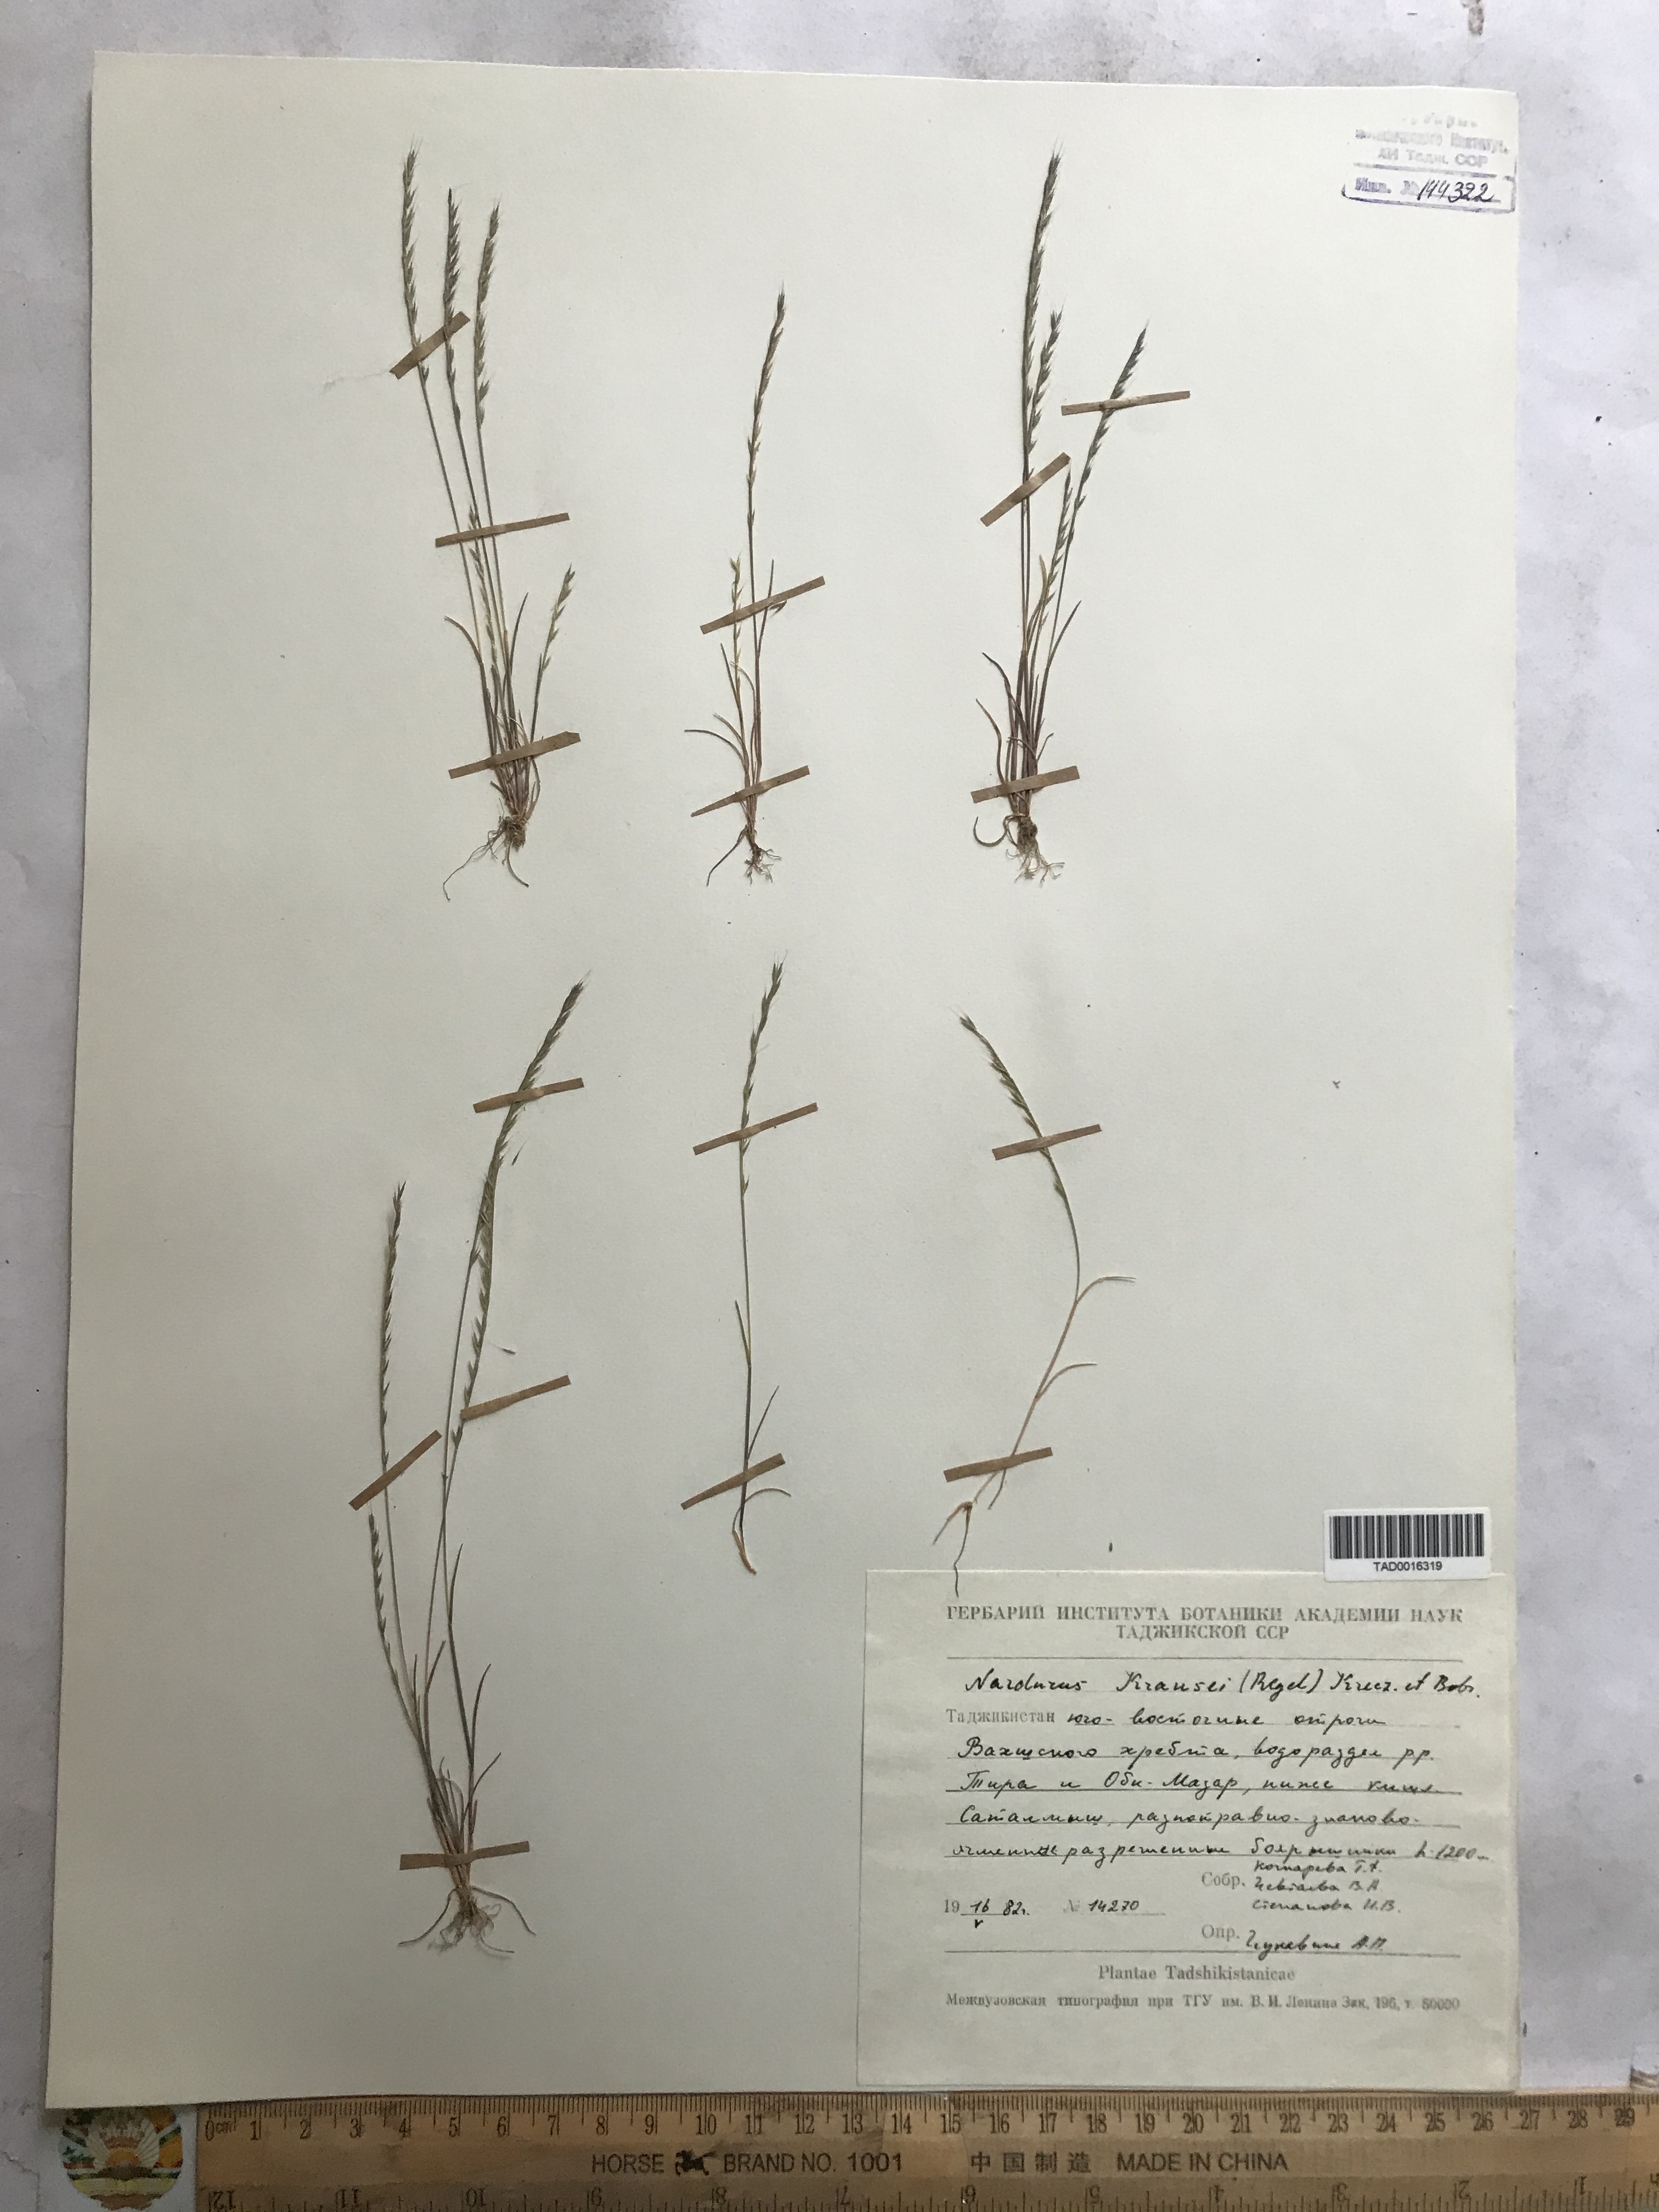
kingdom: Plantae
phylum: Tracheophyta
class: Liliopsida
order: Poales
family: Poaceae
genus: Festuca
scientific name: Festuca maritima
